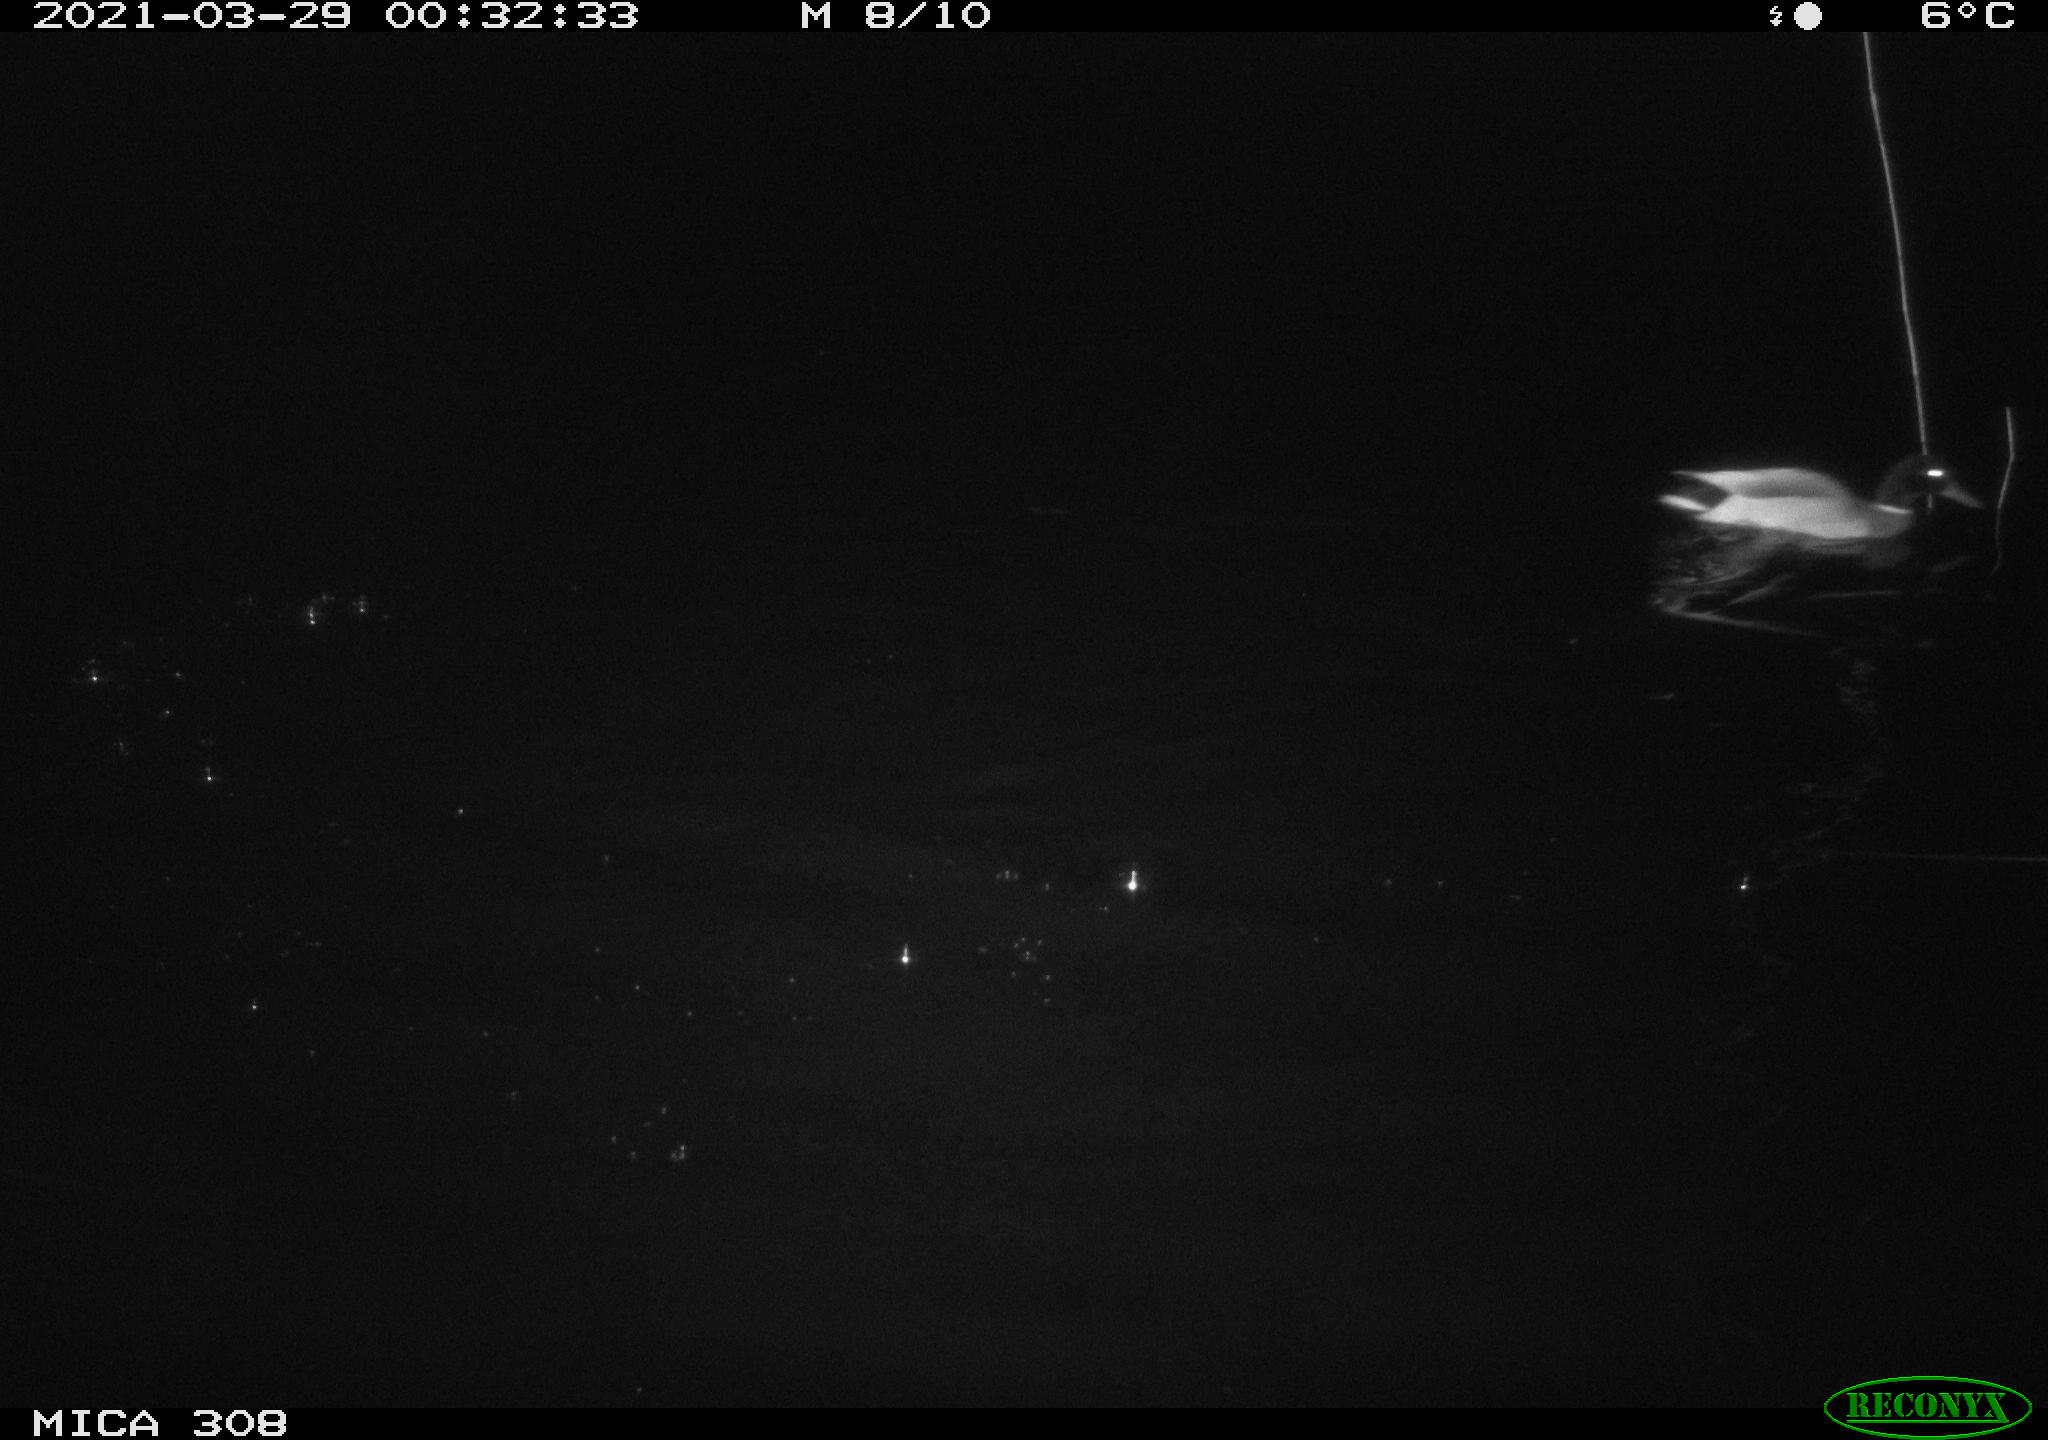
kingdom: Animalia
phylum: Chordata
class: Aves
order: Anseriformes
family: Anatidae
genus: Anas
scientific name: Anas platyrhynchos
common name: Mallard
